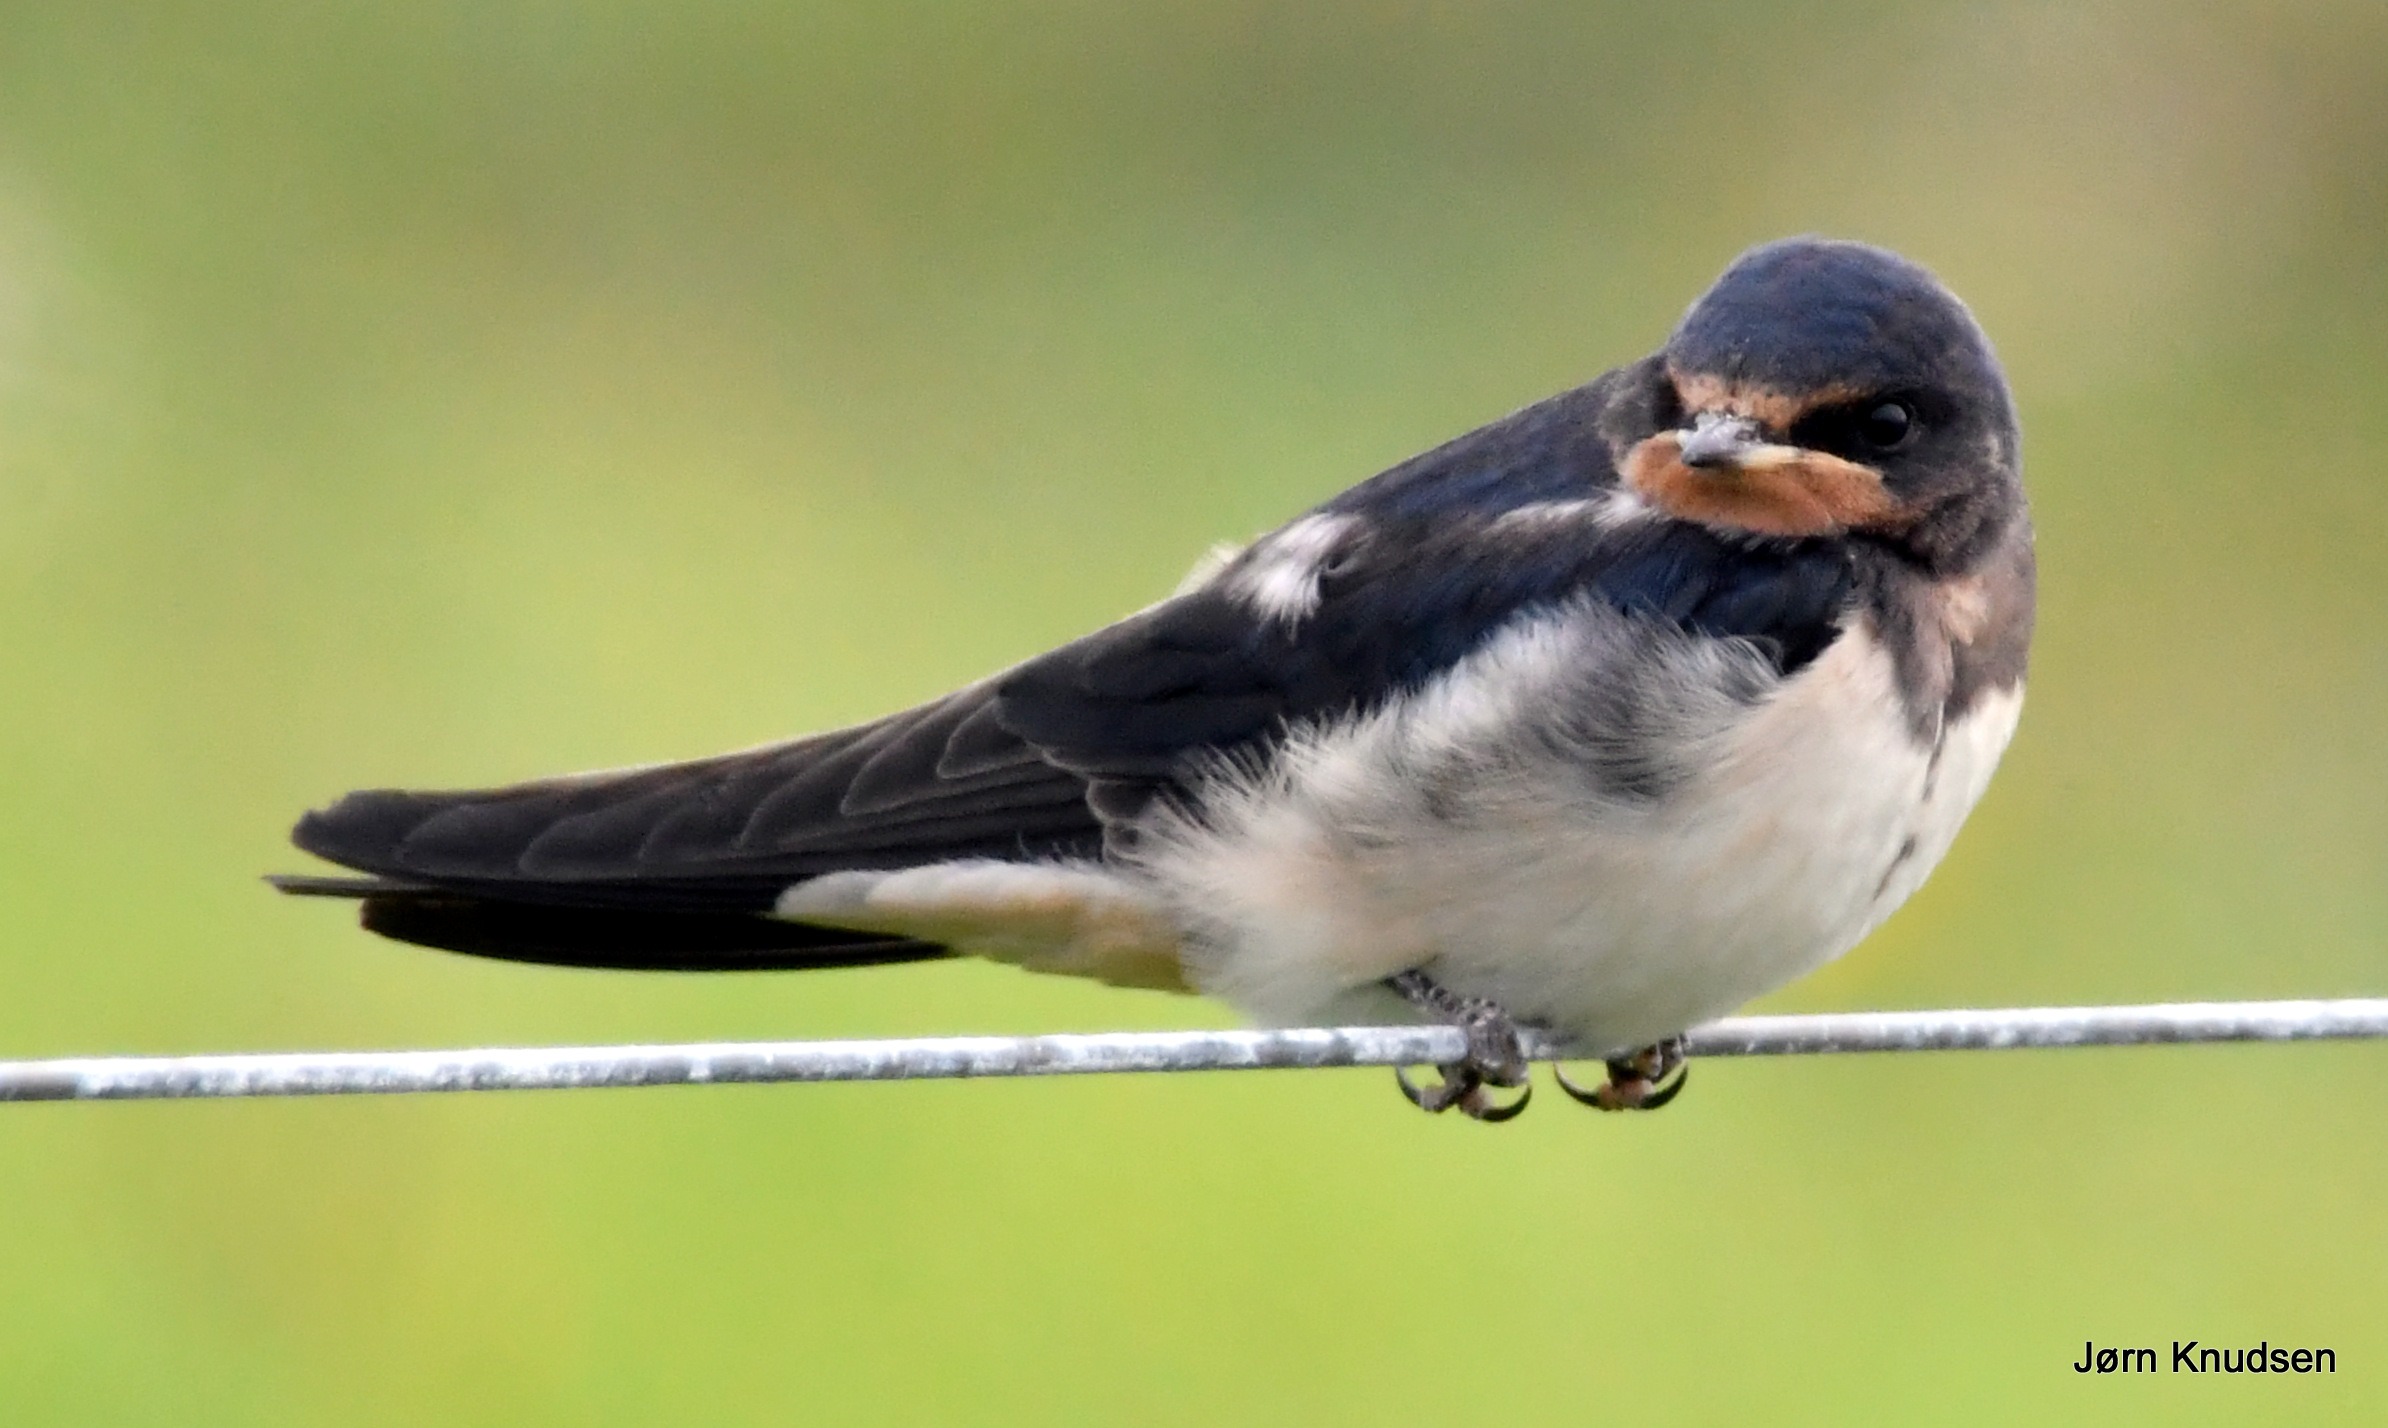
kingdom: Animalia
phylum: Chordata
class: Aves
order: Passeriformes
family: Hirundinidae
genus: Hirundo
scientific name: Hirundo rustica
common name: Landsvale
